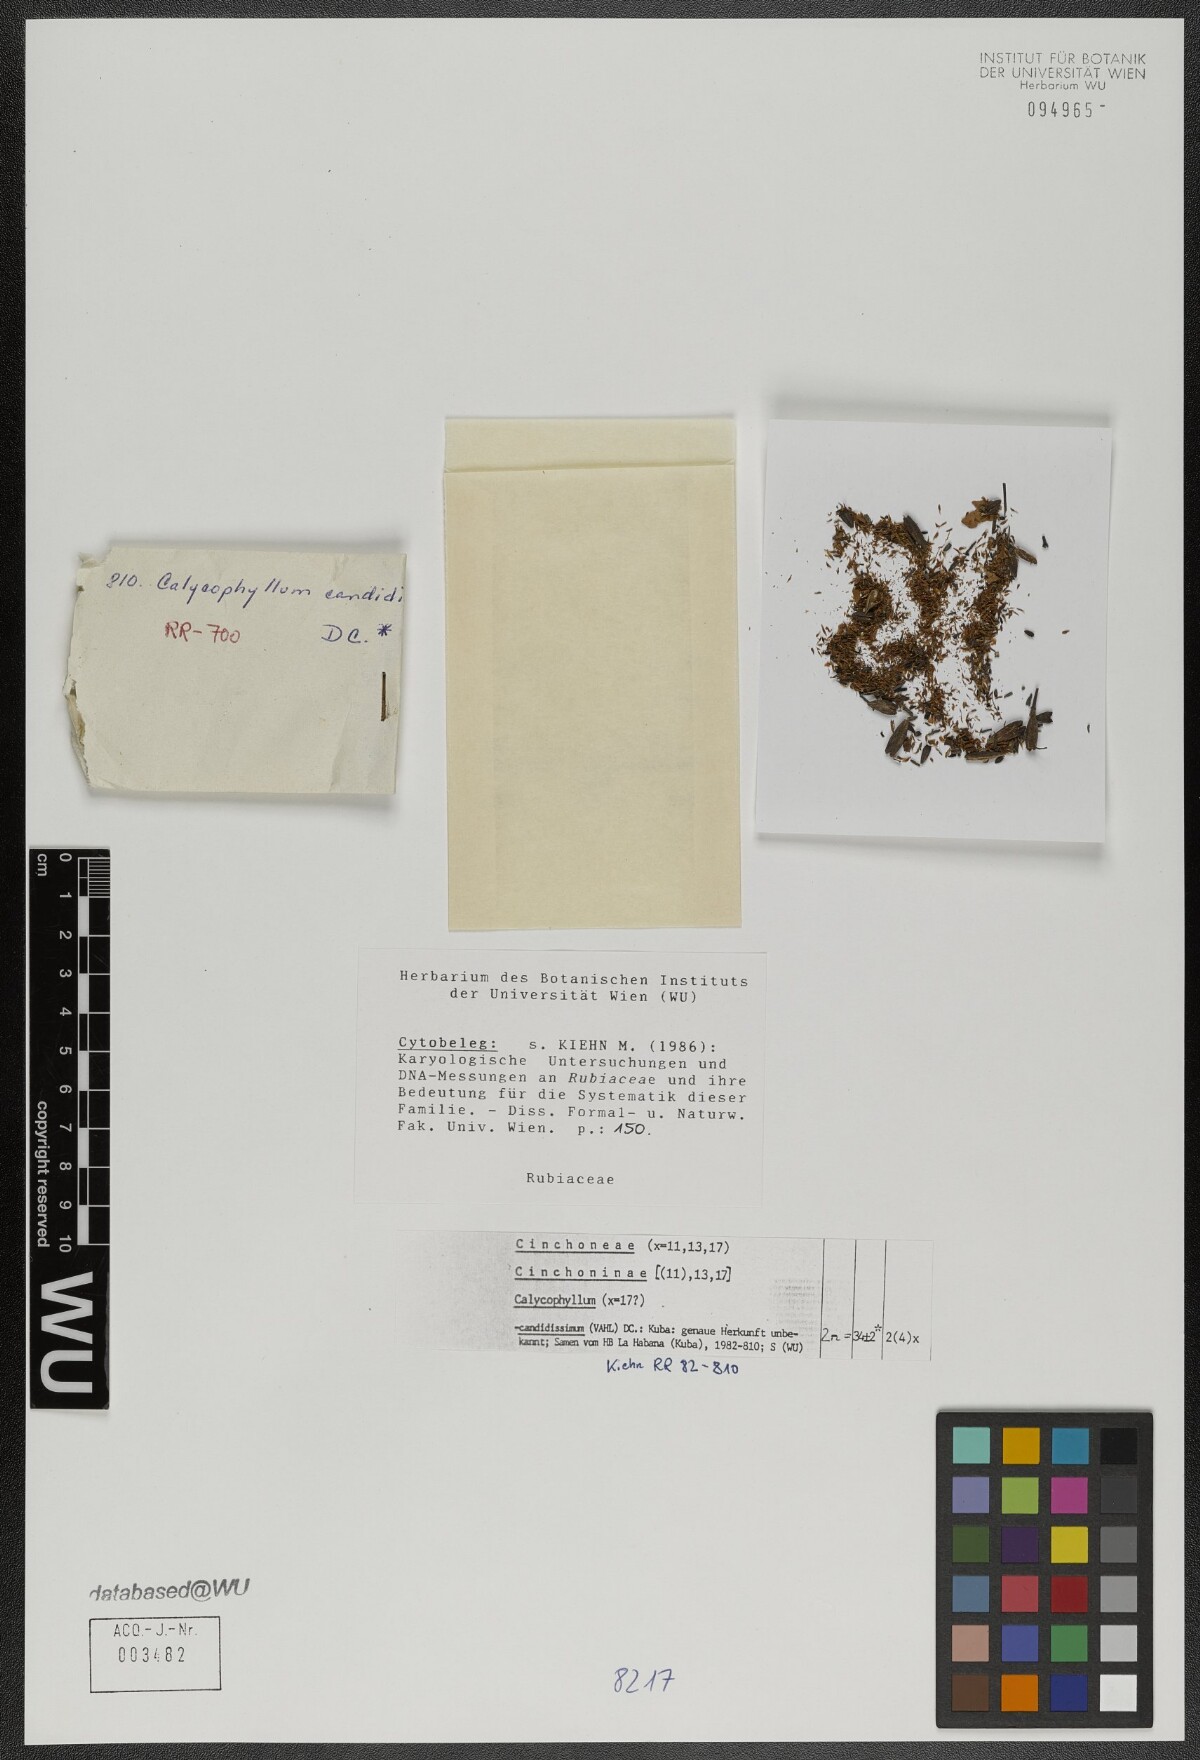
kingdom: Plantae
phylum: Tracheophyta
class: Magnoliopsida
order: Gentianales
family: Rubiaceae
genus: Calycophyllum
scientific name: Calycophyllum candidissimum
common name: Dagame
